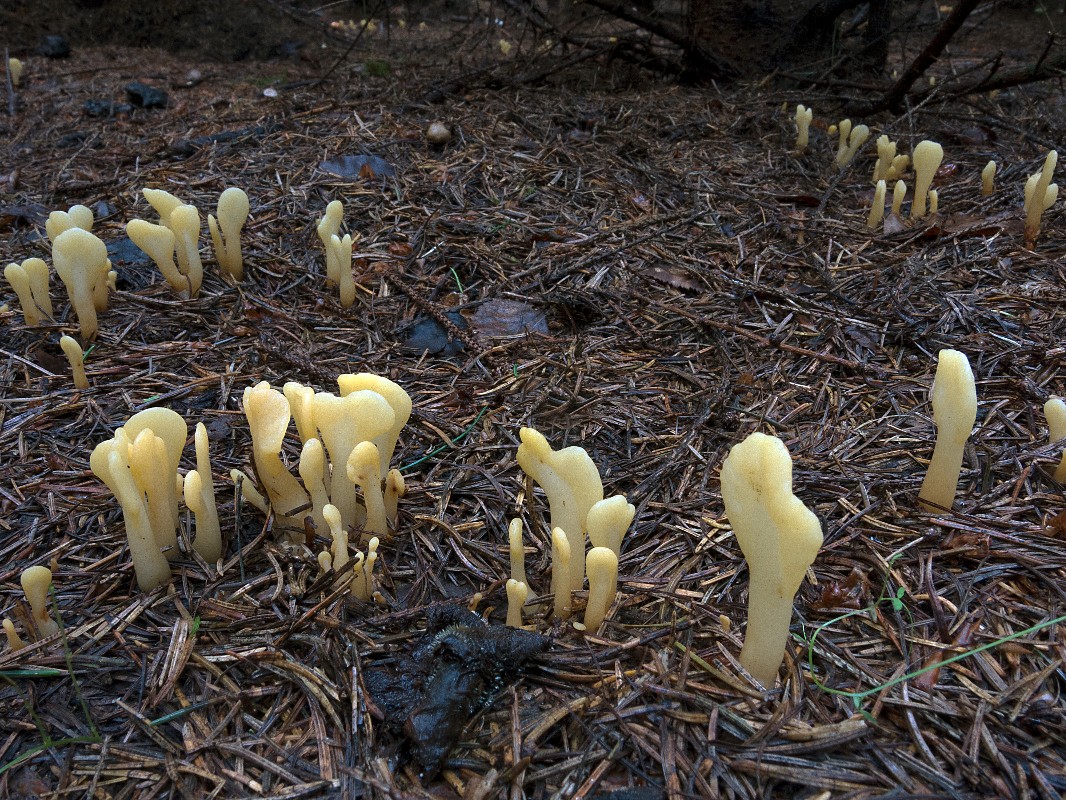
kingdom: Fungi
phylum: Ascomycota
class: Leotiomycetes
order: Rhytismatales
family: Cudoniaceae
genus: Spathularia
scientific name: Spathularia flavida
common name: gul spatelsvamp
